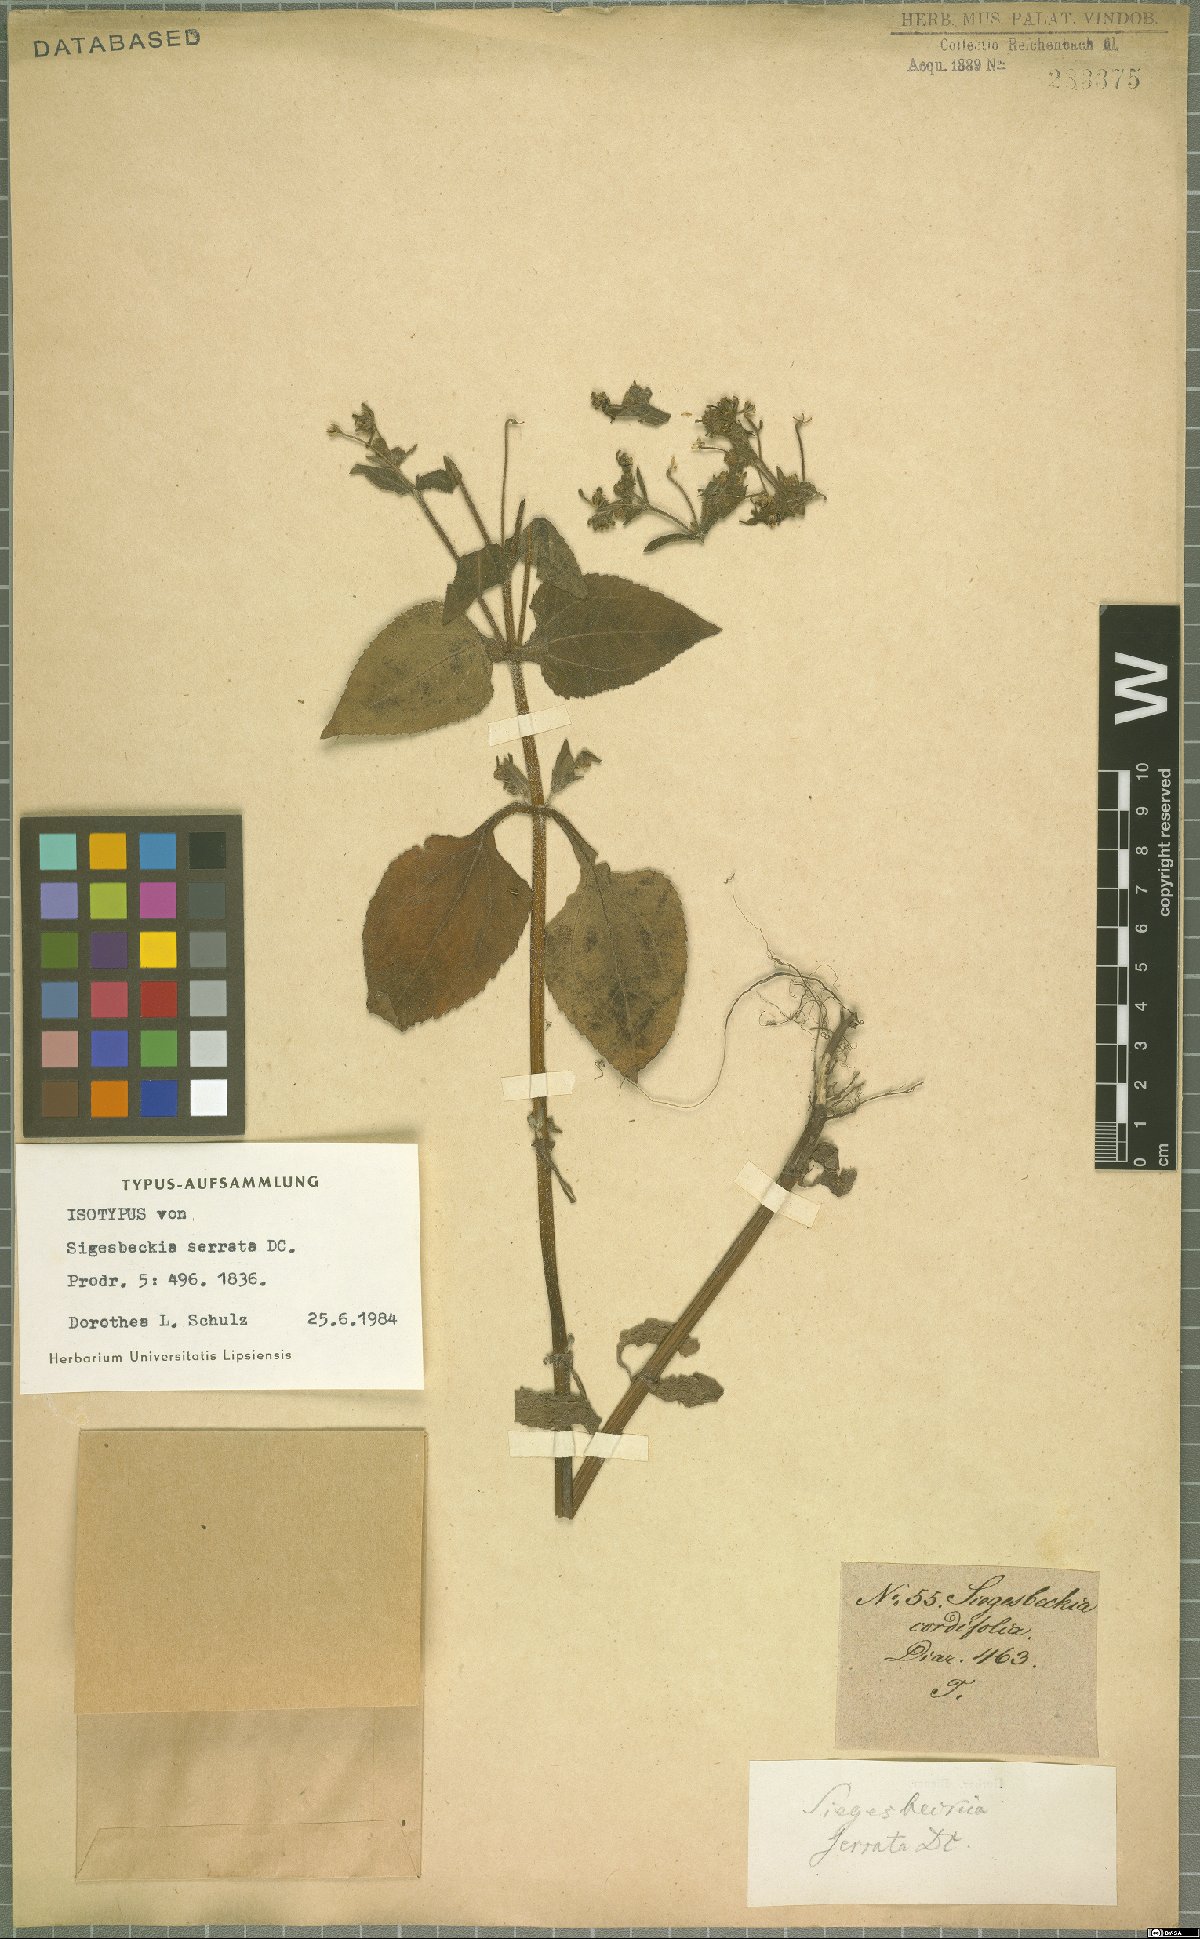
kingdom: Plantae
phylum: Tracheophyta
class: Magnoliopsida
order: Asterales
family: Asteraceae
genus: Sigesbeckia
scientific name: Sigesbeckia jorullensis
